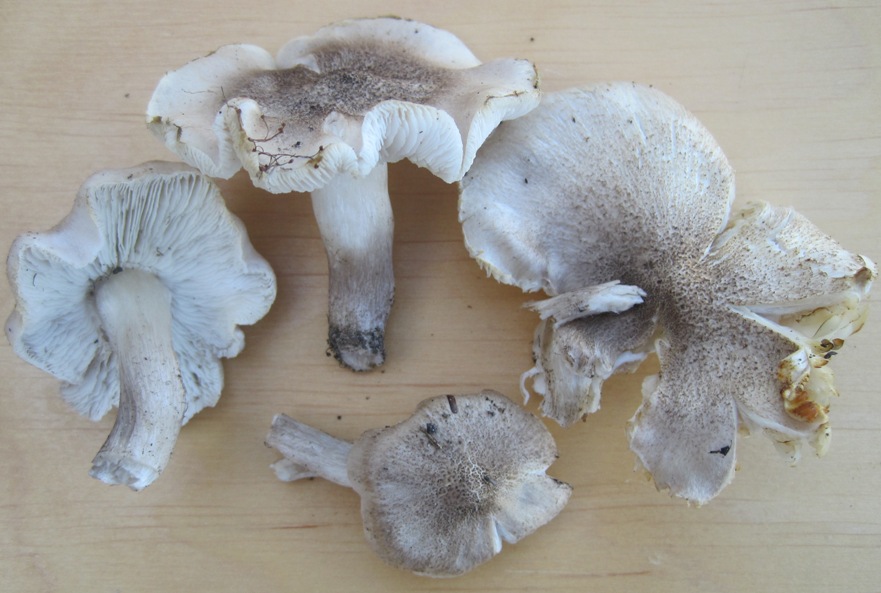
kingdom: Fungi
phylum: Basidiomycota
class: Agaricomycetes
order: Agaricales
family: Tricholomataceae
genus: Tricholoma
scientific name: Tricholoma scalpturatum
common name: gulplettet ridderhat
